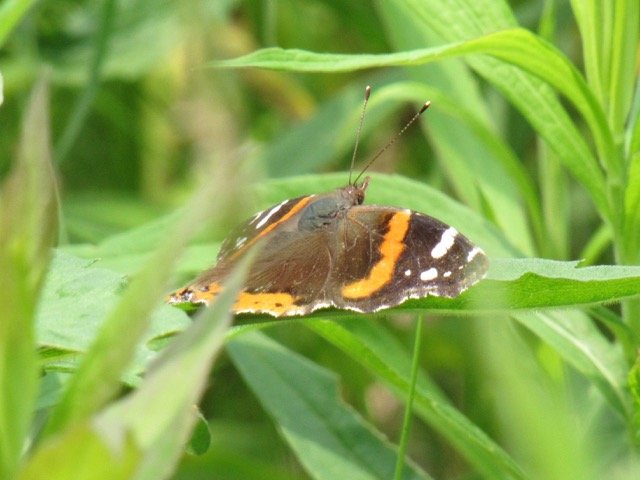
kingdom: Animalia
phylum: Arthropoda
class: Insecta
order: Lepidoptera
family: Nymphalidae
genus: Vanessa
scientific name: Vanessa atalanta
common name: Red Admiral
